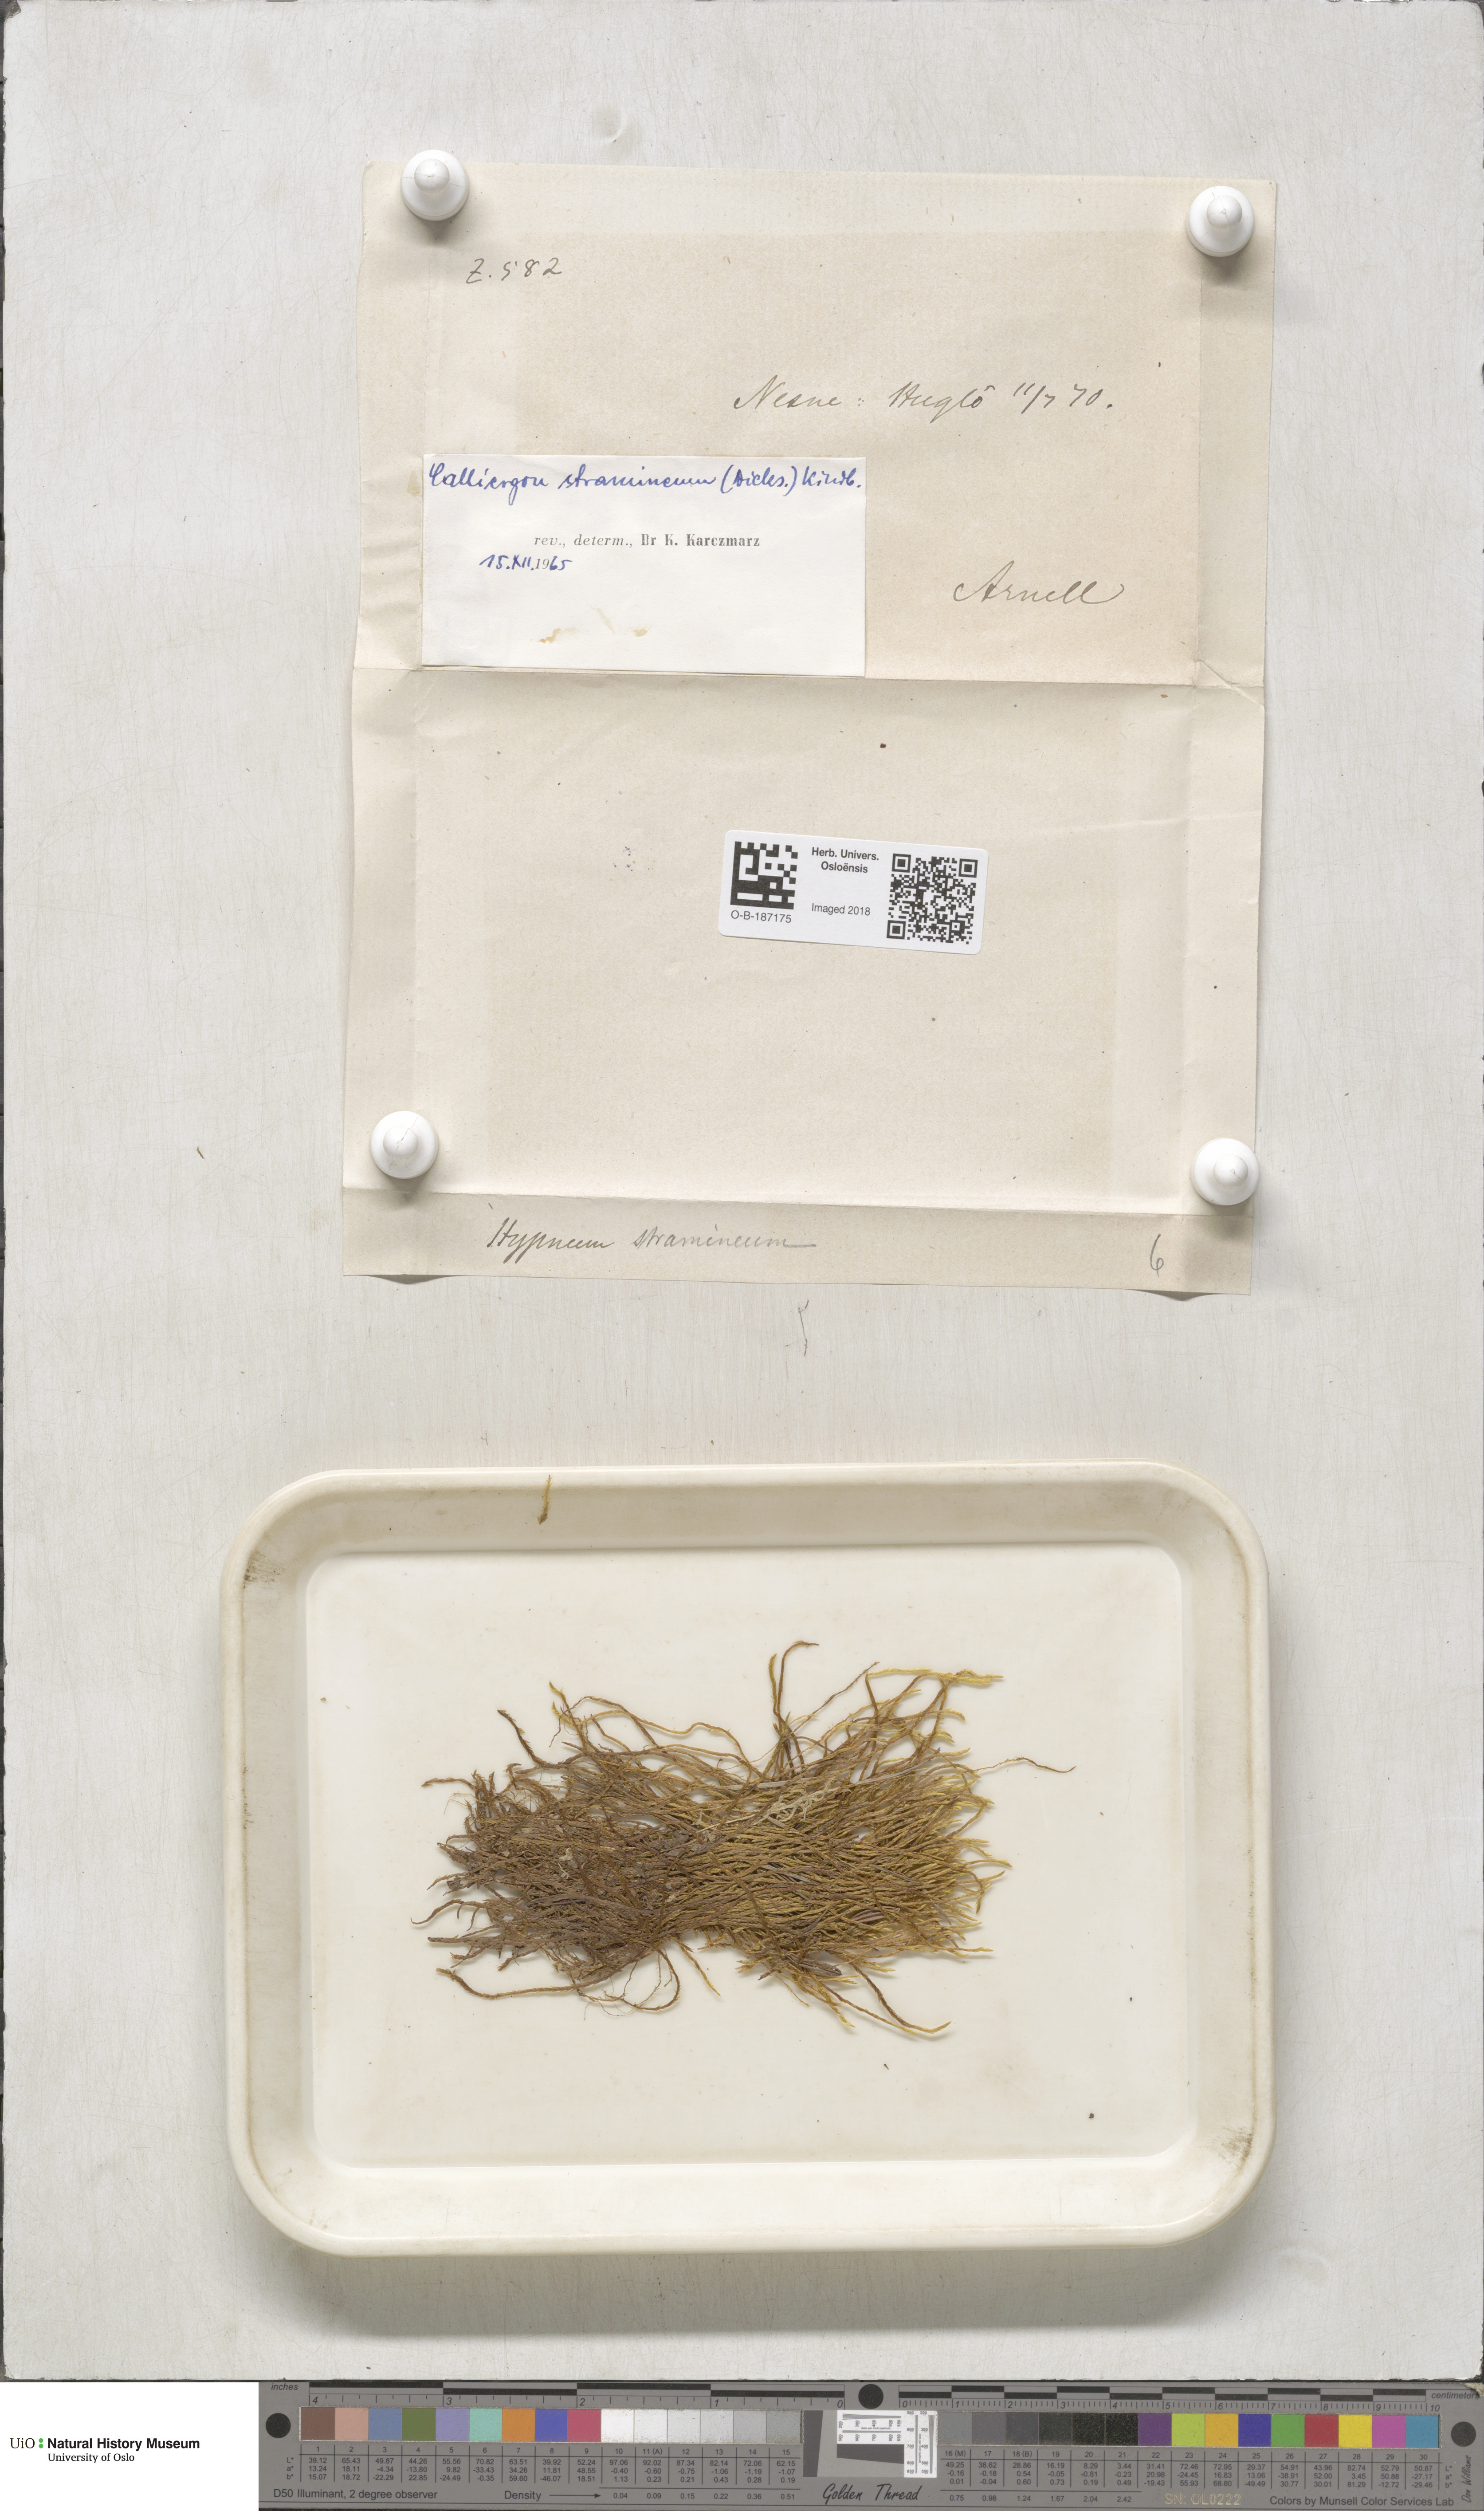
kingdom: Plantae
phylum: Bryophyta
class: Bryopsida
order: Hypnales
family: Calliergonaceae
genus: Straminergon
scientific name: Straminergon stramineum
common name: Straw moss
